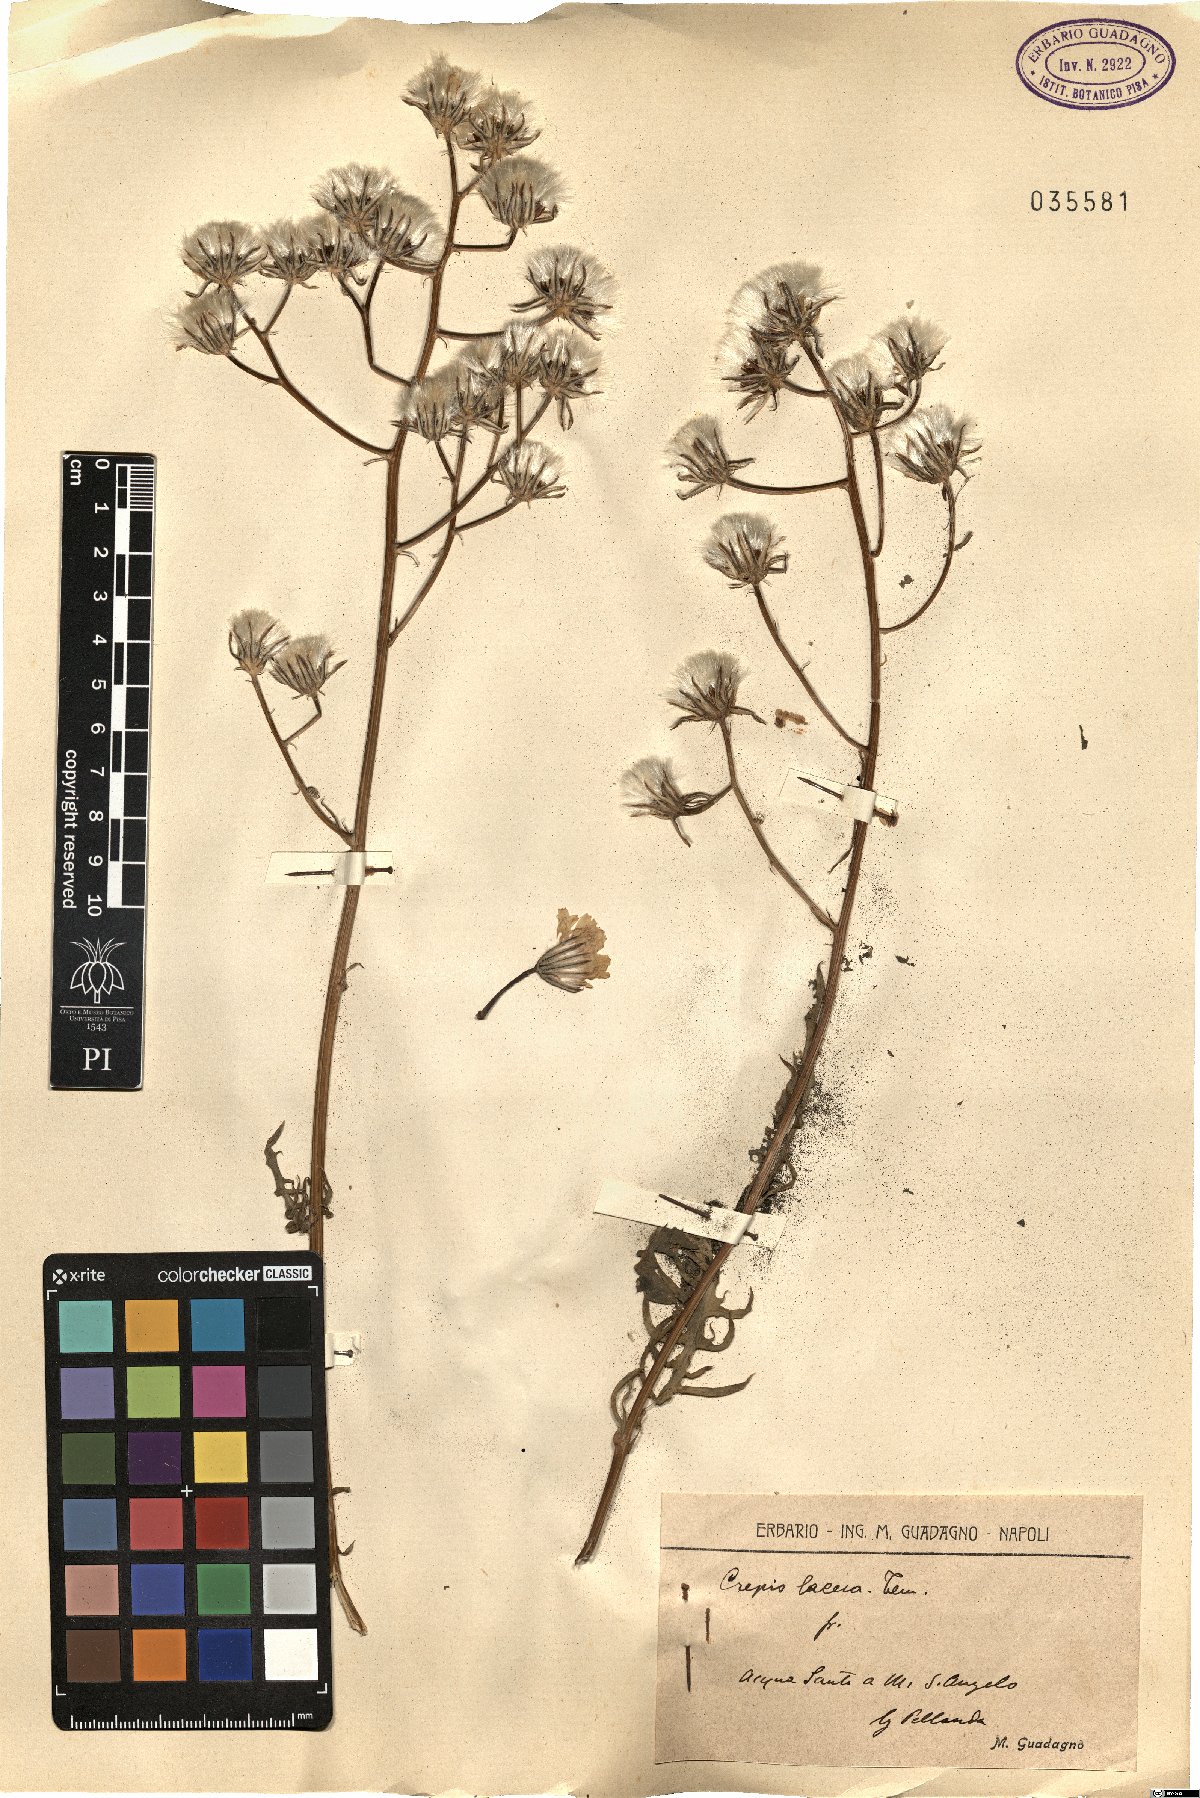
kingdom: Plantae
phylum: Tracheophyta
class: Magnoliopsida
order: Asterales
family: Asteraceae
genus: Crepis
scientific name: Crepis lacera
